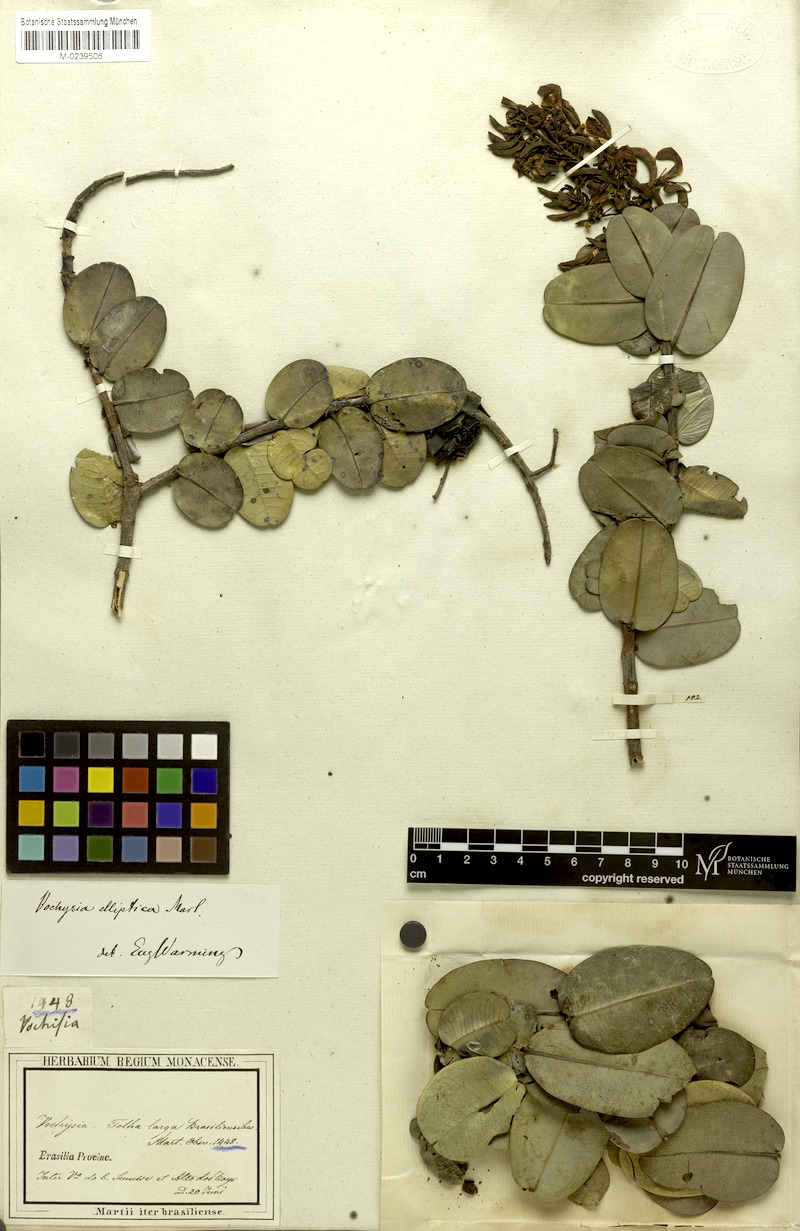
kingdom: Plantae
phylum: Tracheophyta
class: Magnoliopsida
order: Myrtales
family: Vochysiaceae
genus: Vochysia
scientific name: Vochysia elliptica
